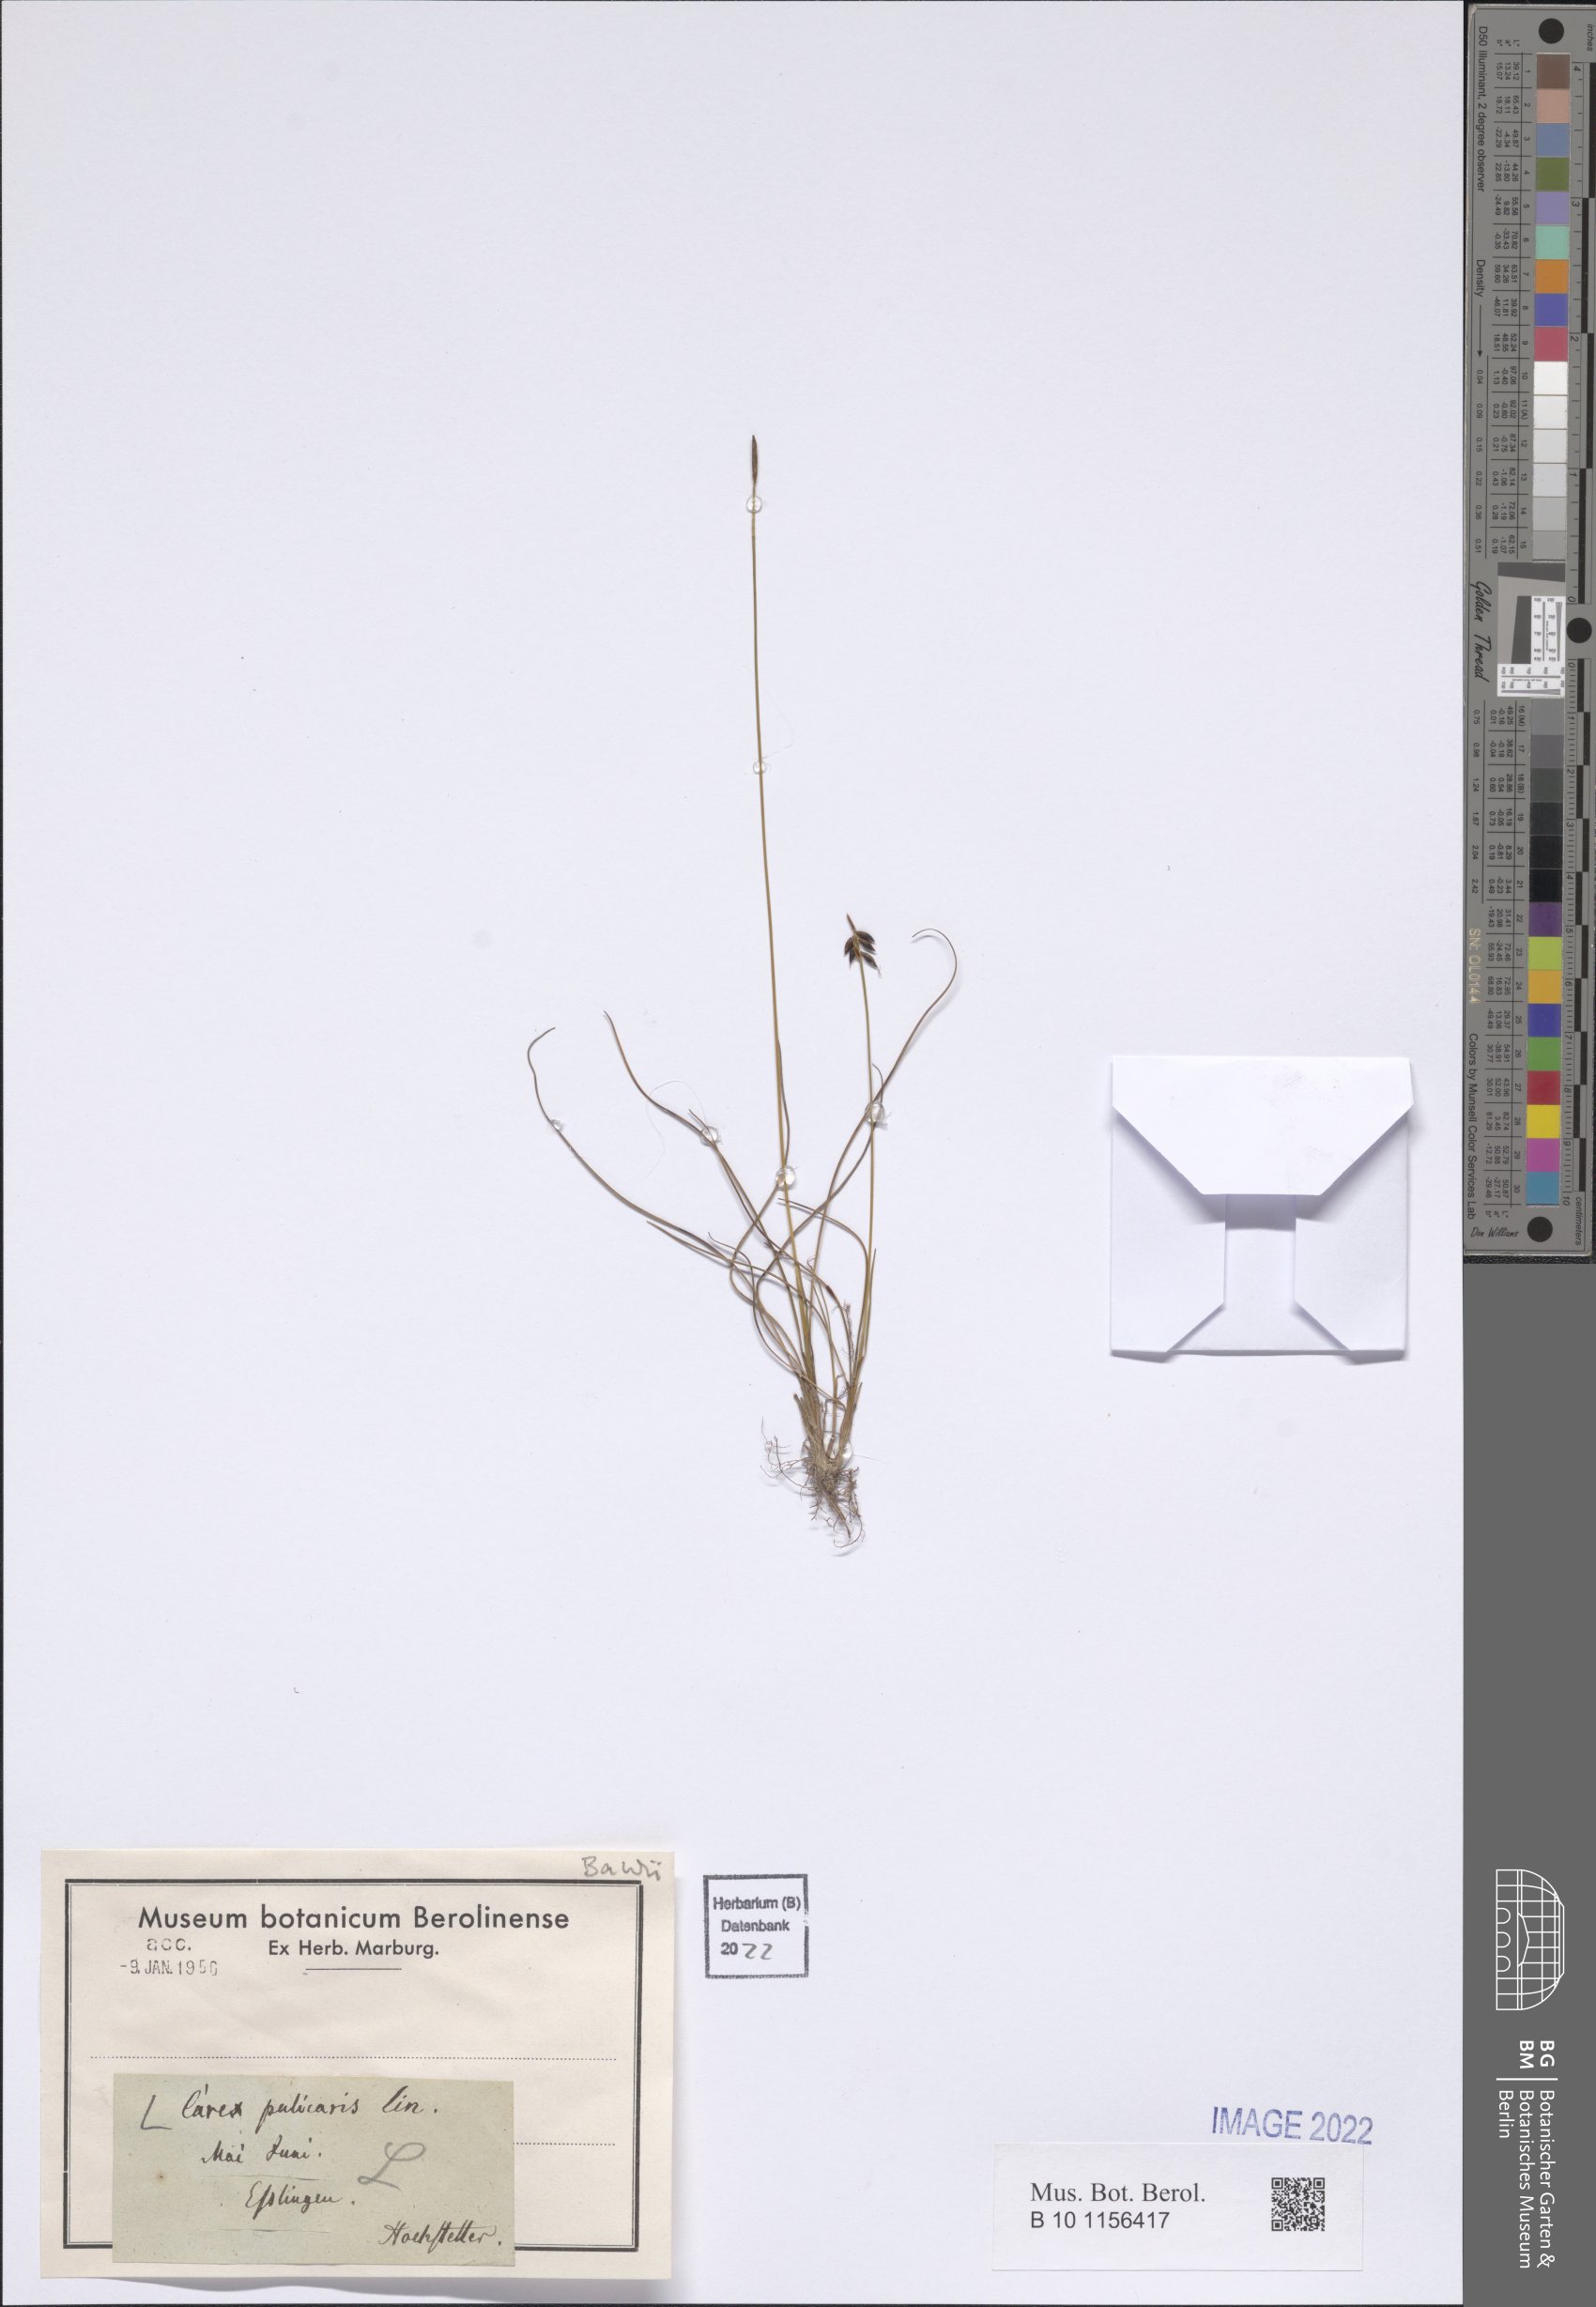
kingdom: Plantae
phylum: Tracheophyta
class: Liliopsida
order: Poales
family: Cyperaceae
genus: Carex
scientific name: Carex pulicaris
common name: Flea sedge
